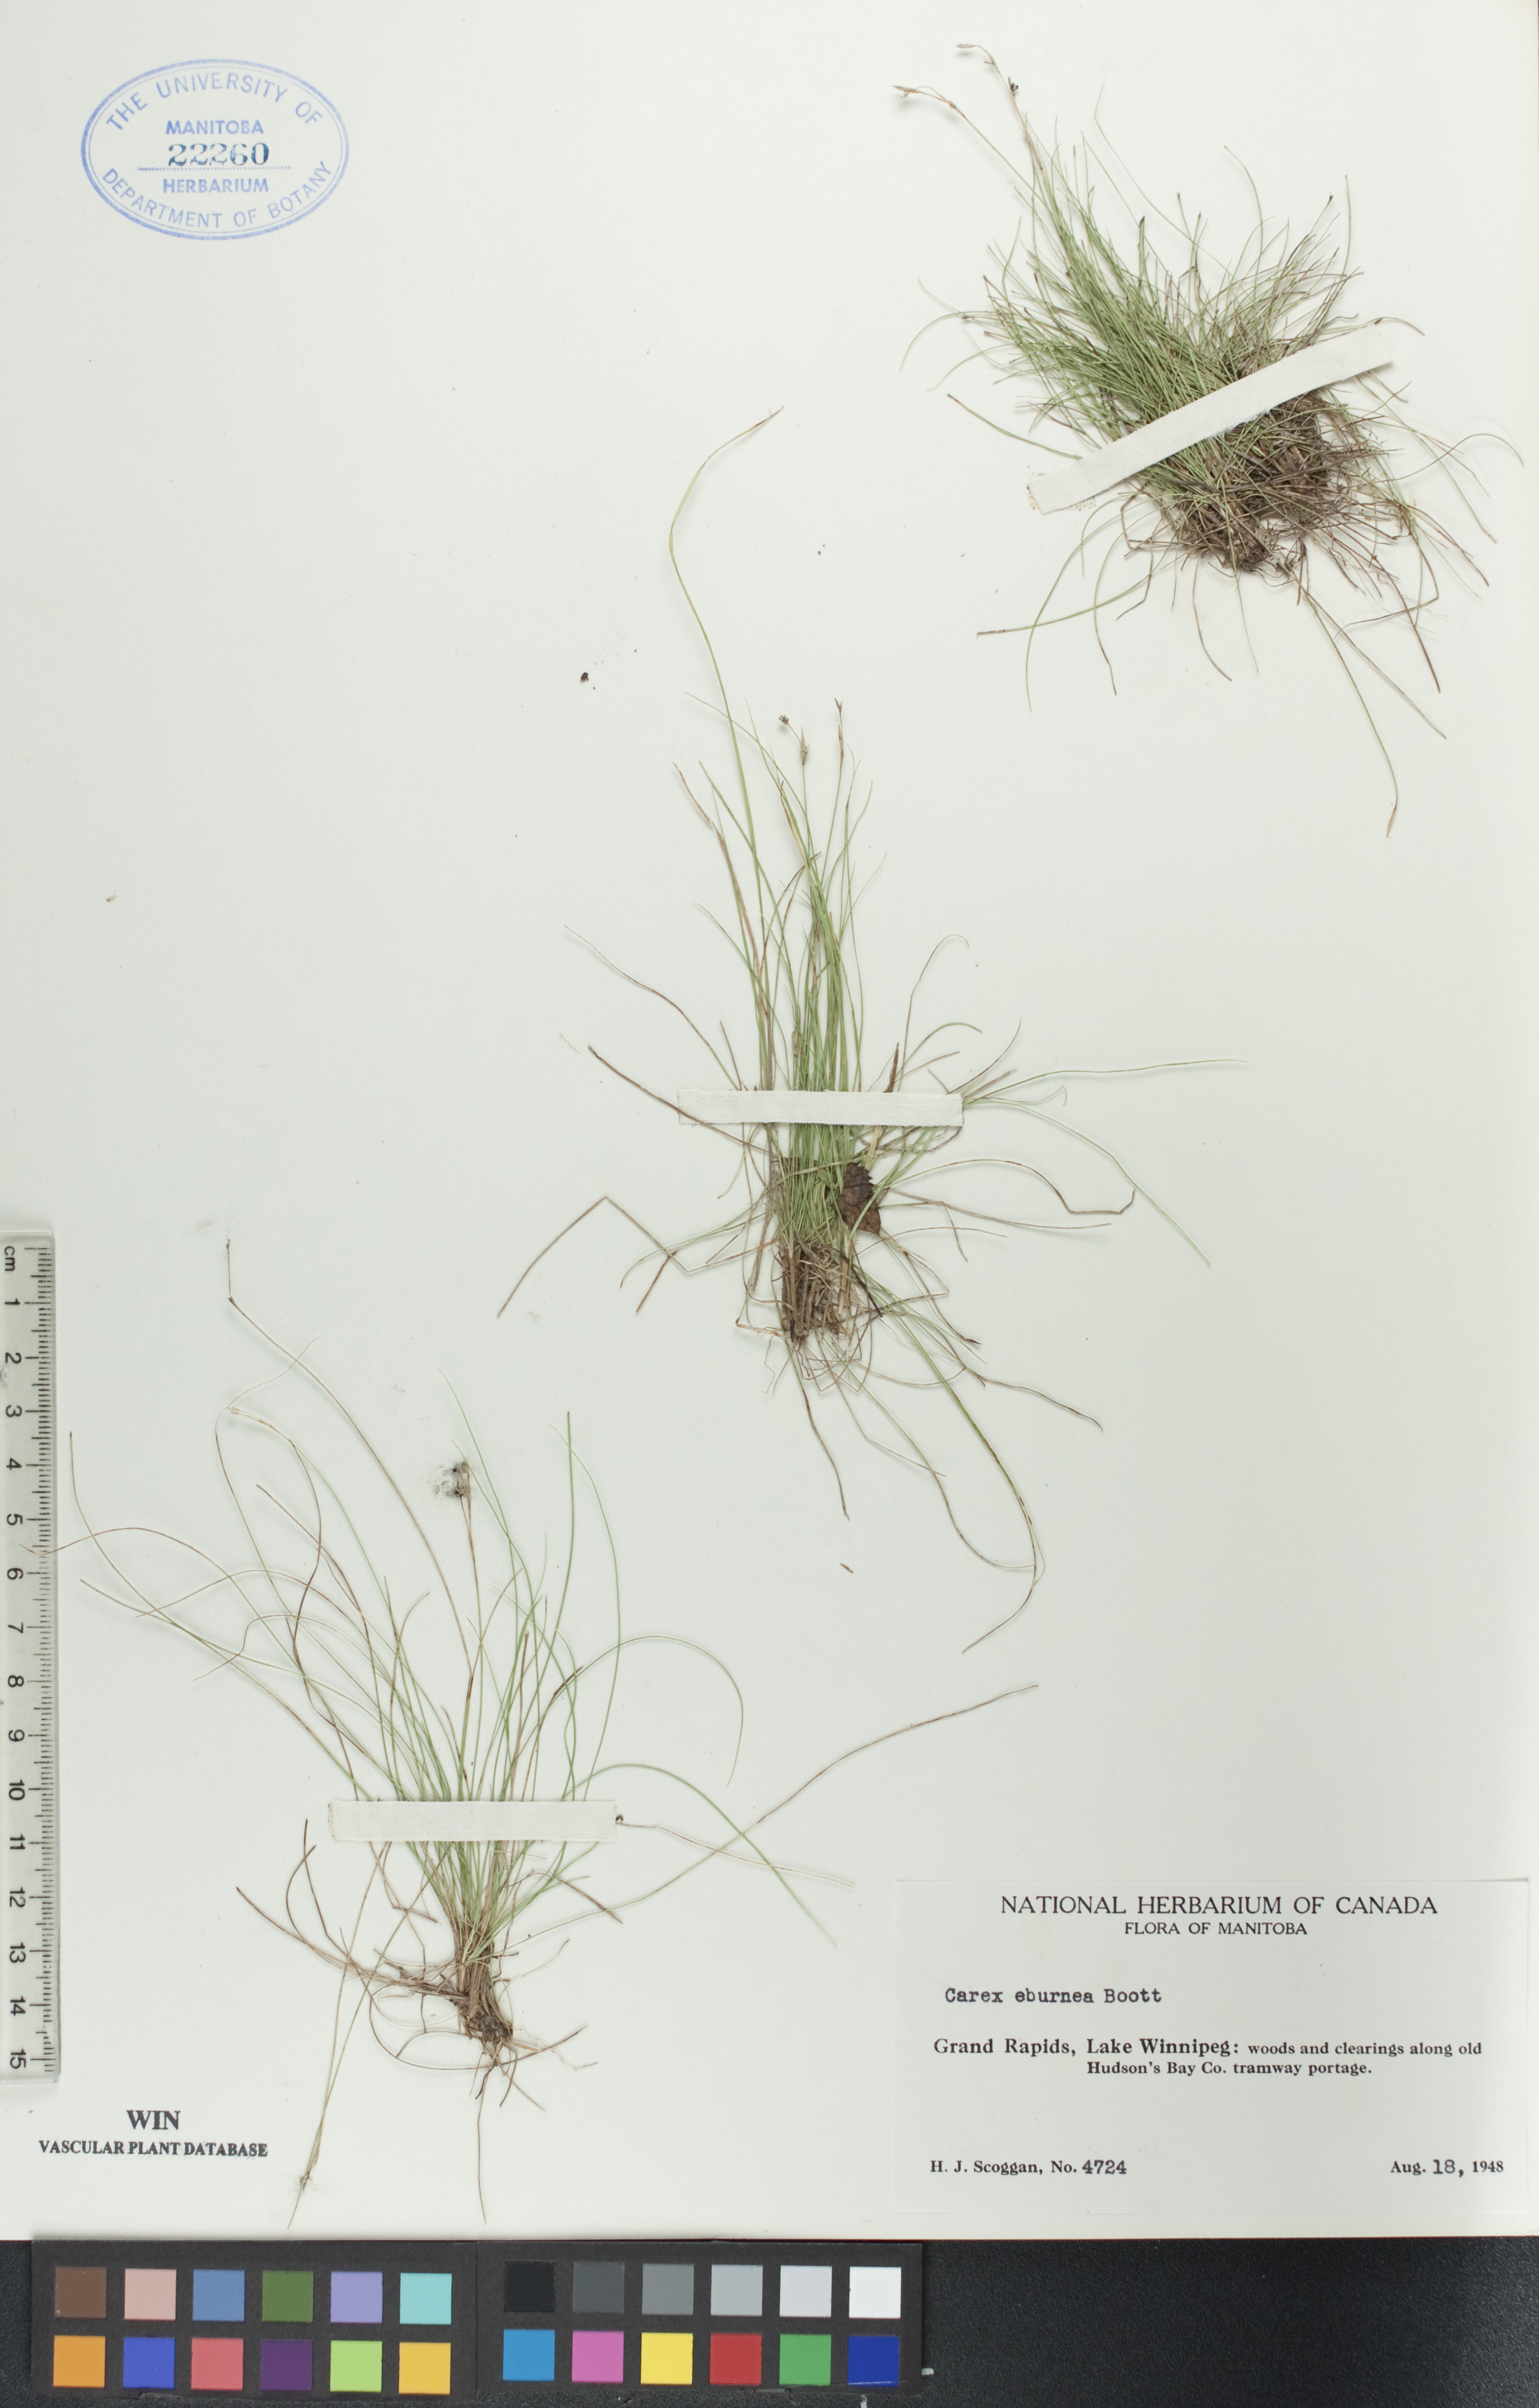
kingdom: Plantae
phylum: Tracheophyta
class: Liliopsida
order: Poales
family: Cyperaceae
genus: Carex
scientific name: Carex eburnea
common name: Bristle-leaved sedge
